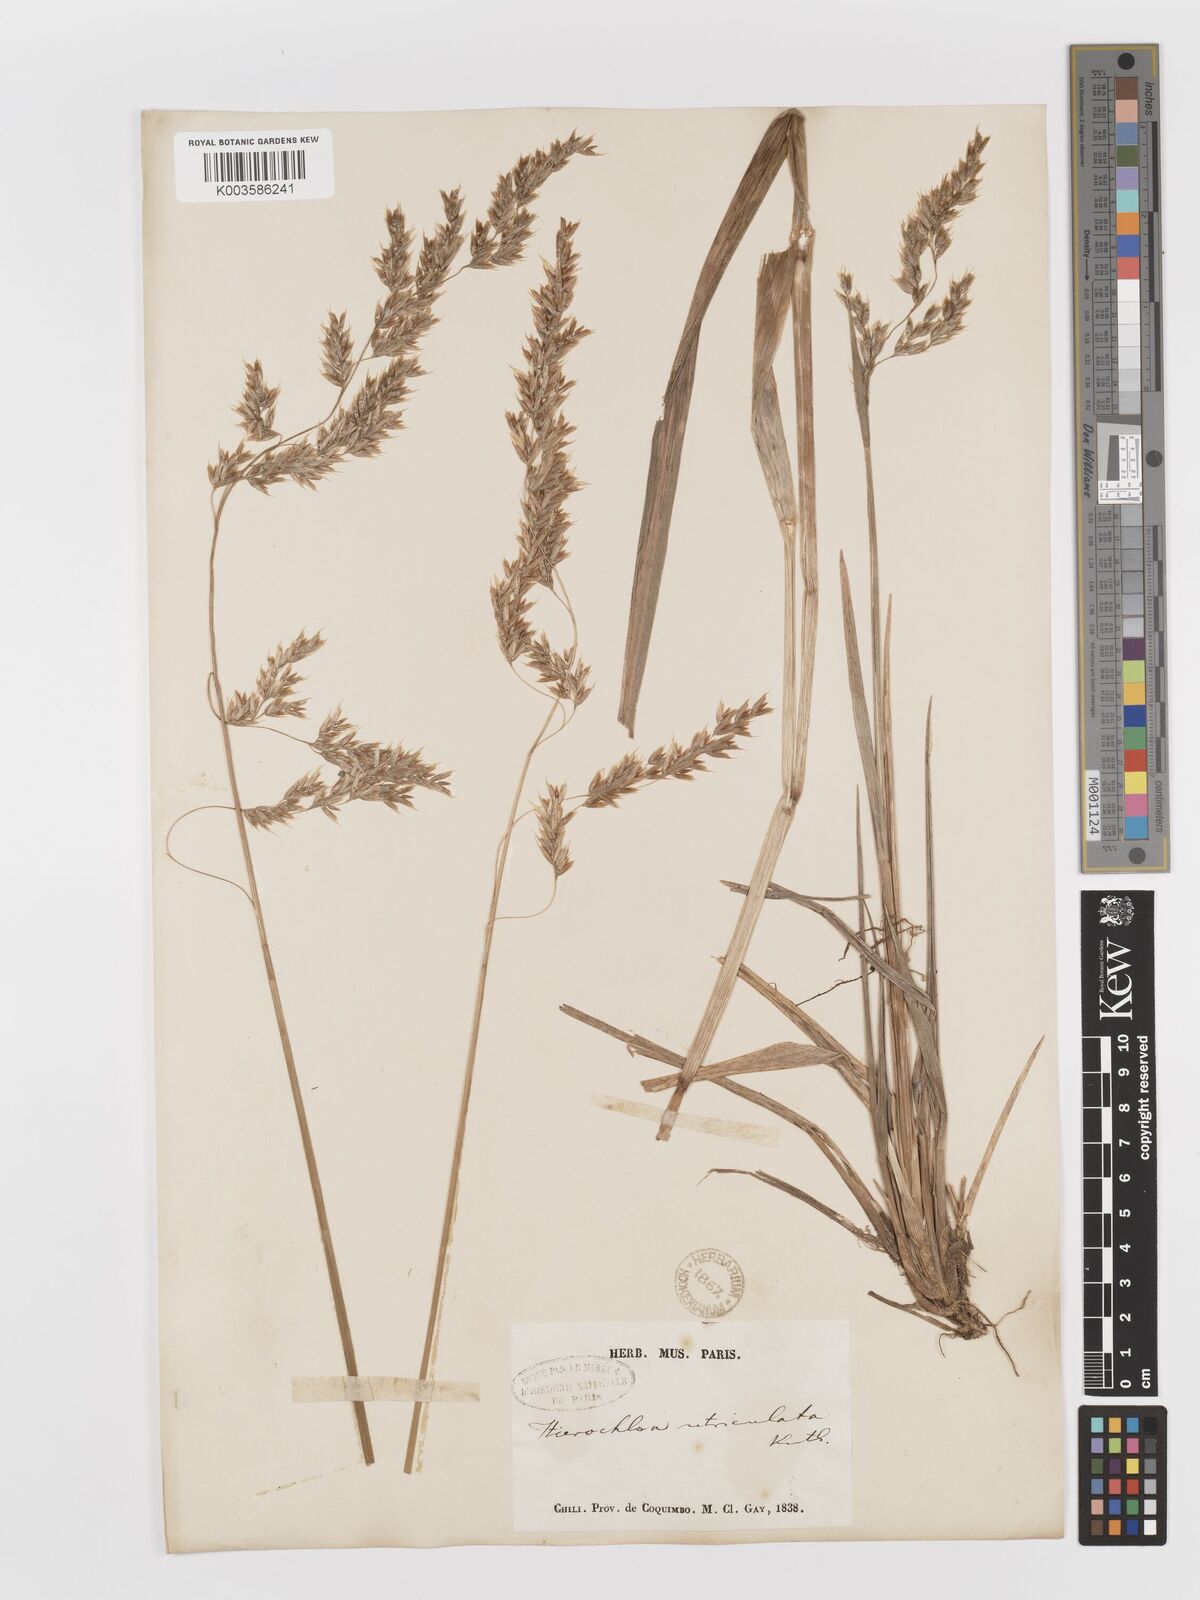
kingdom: Plantae
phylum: Tracheophyta
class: Liliopsida
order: Poales
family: Poaceae
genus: Anthoxanthum
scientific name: Anthoxanthum redolens
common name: Sweet holy grass
